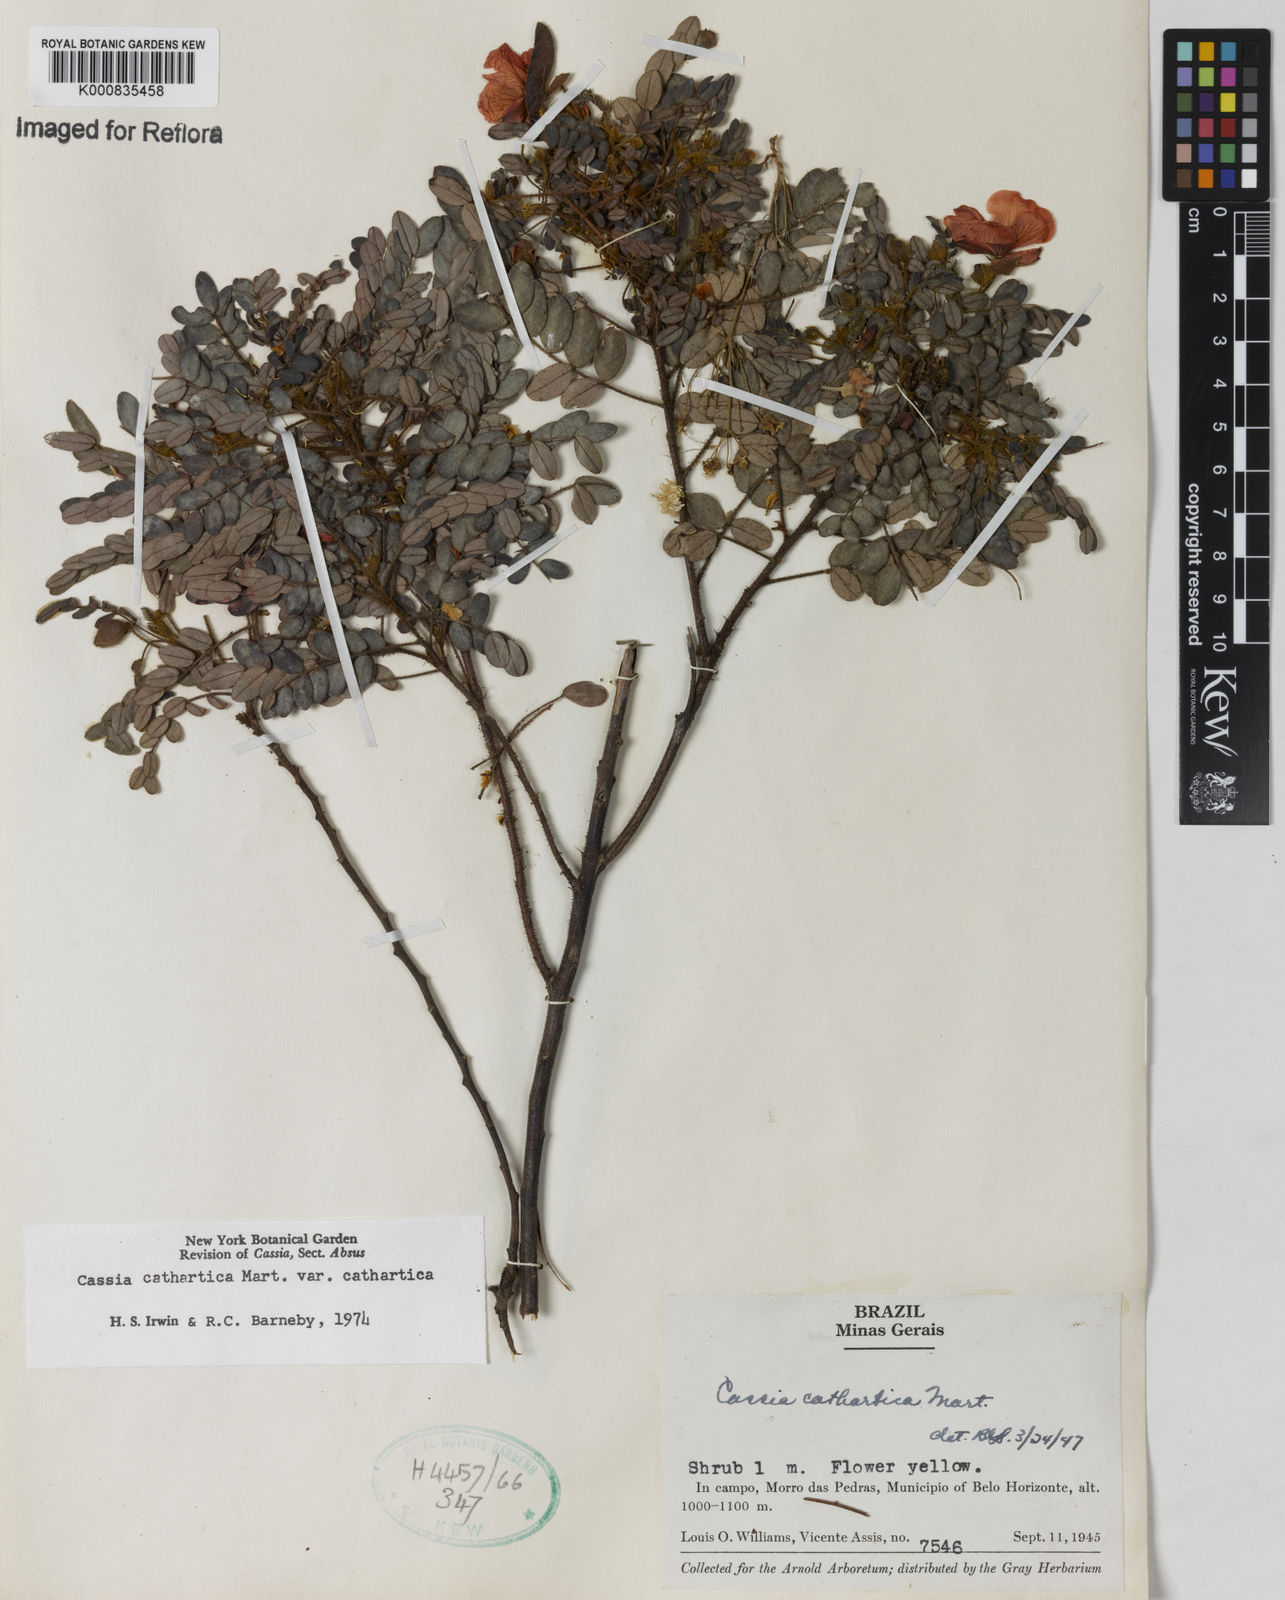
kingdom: Plantae
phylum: Tracheophyta
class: Magnoliopsida
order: Fabales
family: Fabaceae
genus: Chamaecrista
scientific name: Chamaecrista cathartica
